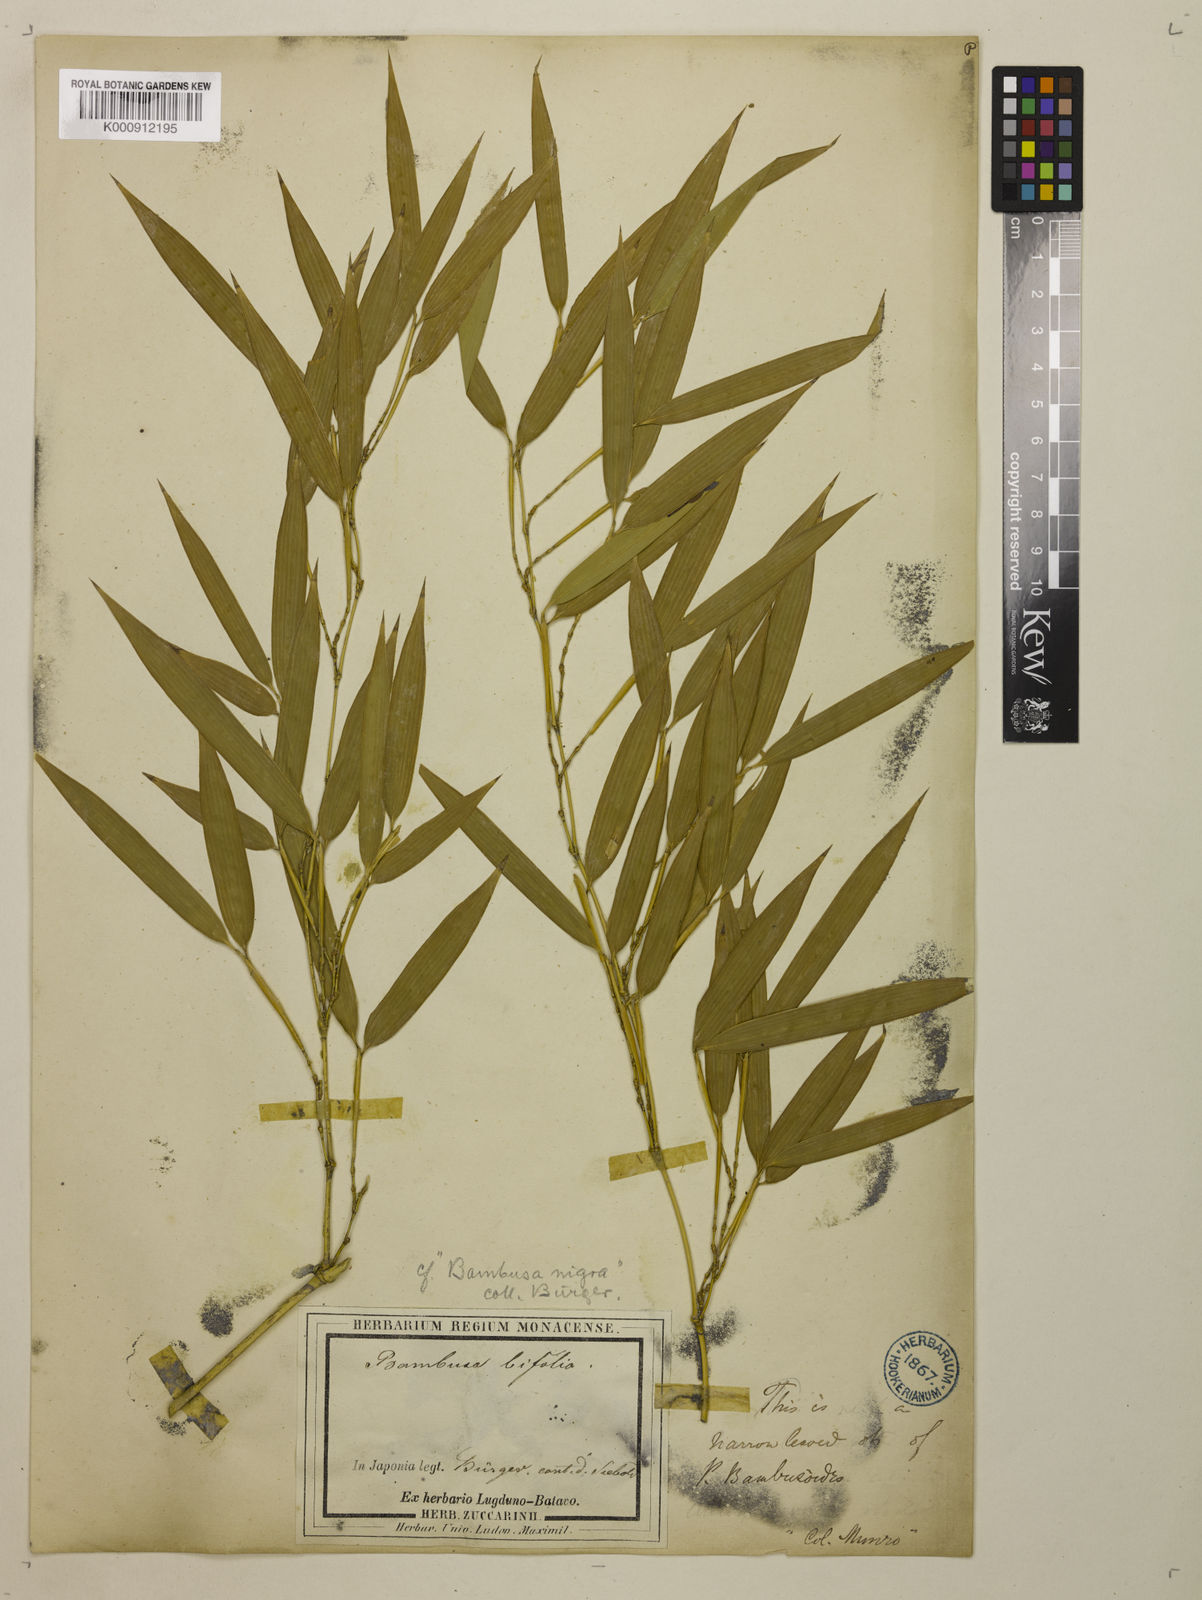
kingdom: Plantae
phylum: Tracheophyta
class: Liliopsida
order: Poales
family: Poaceae
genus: Phyllostachys
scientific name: Phyllostachys nigra
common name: Black bamboo
